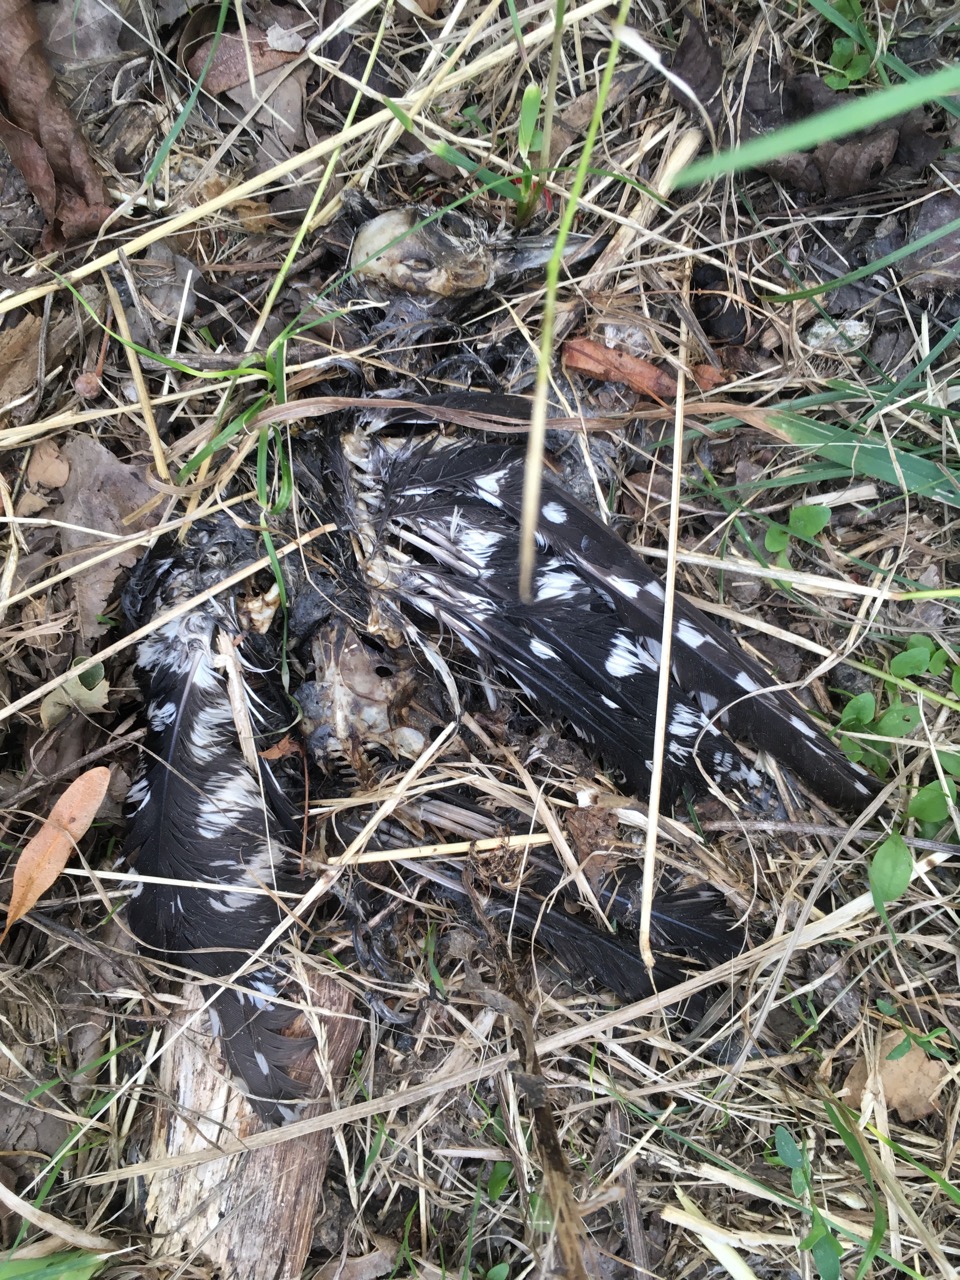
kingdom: Animalia
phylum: Chordata
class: Aves
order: Piciformes
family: Picidae
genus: Dendrocopos
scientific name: Dendrocopos major
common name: Great spotted woodpecker
